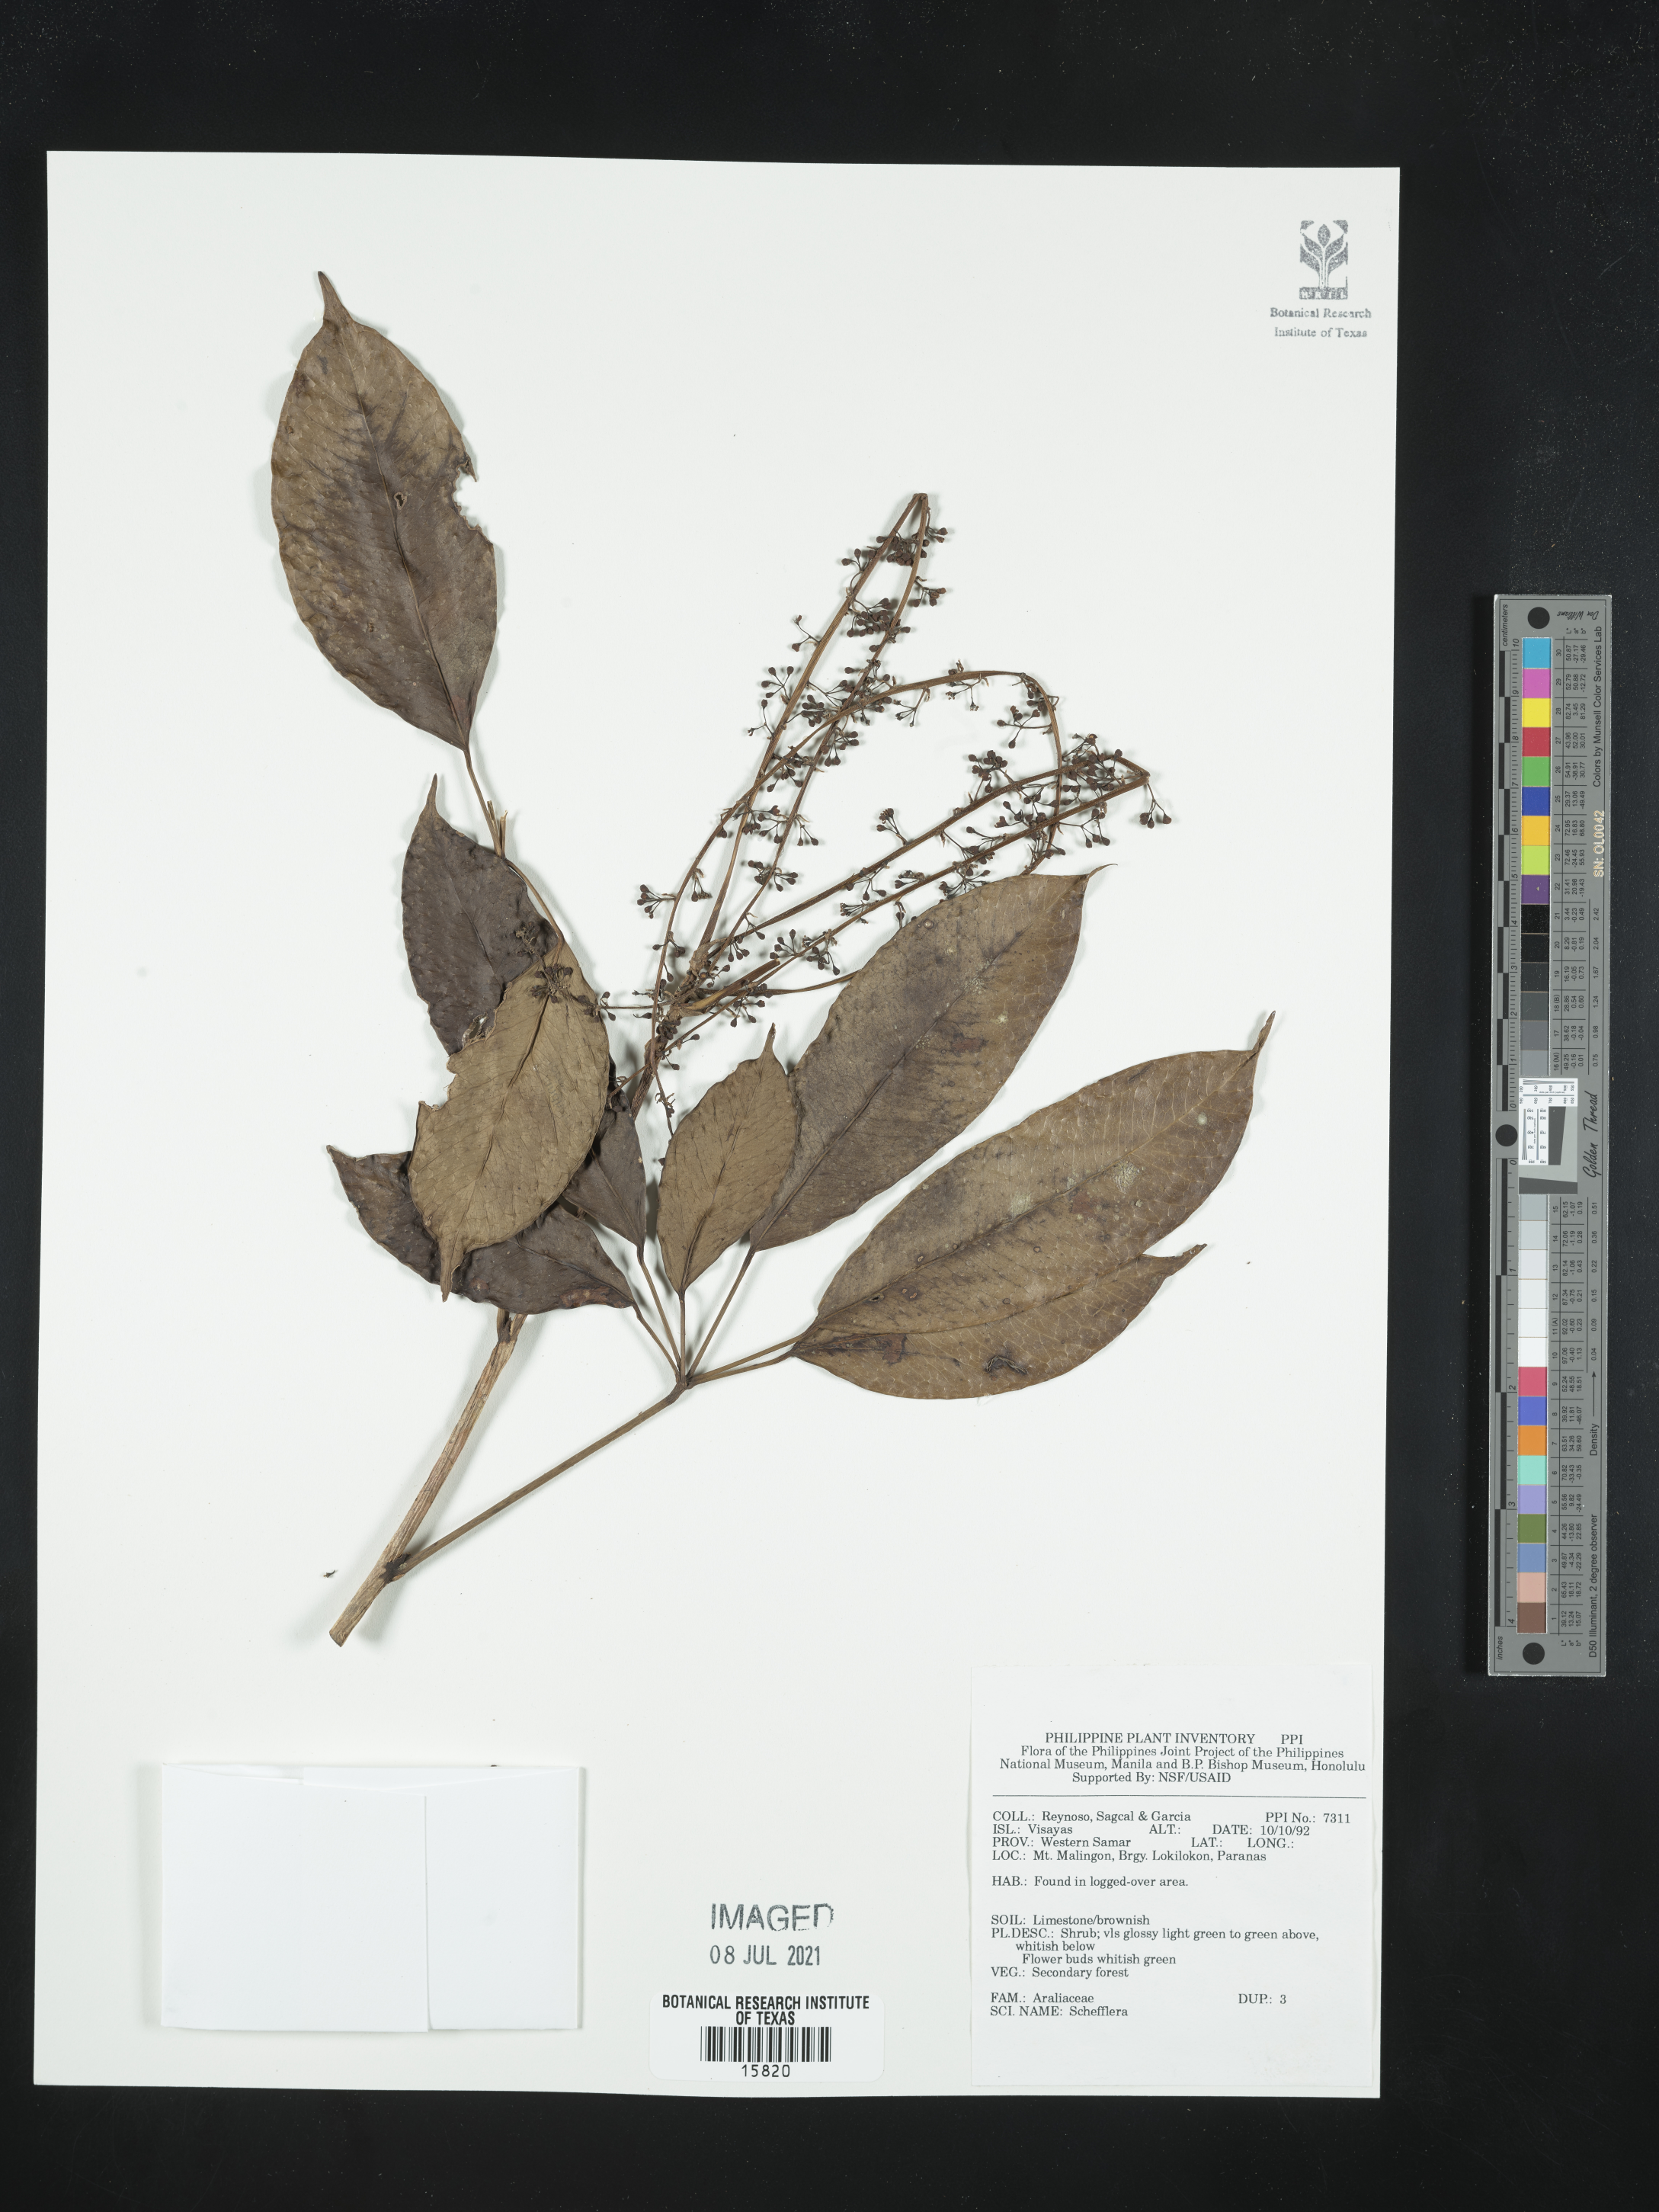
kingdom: Plantae
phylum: Tracheophyta
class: Magnoliopsida
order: Apiales
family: Araliaceae
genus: Schefflera
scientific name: Schefflera
